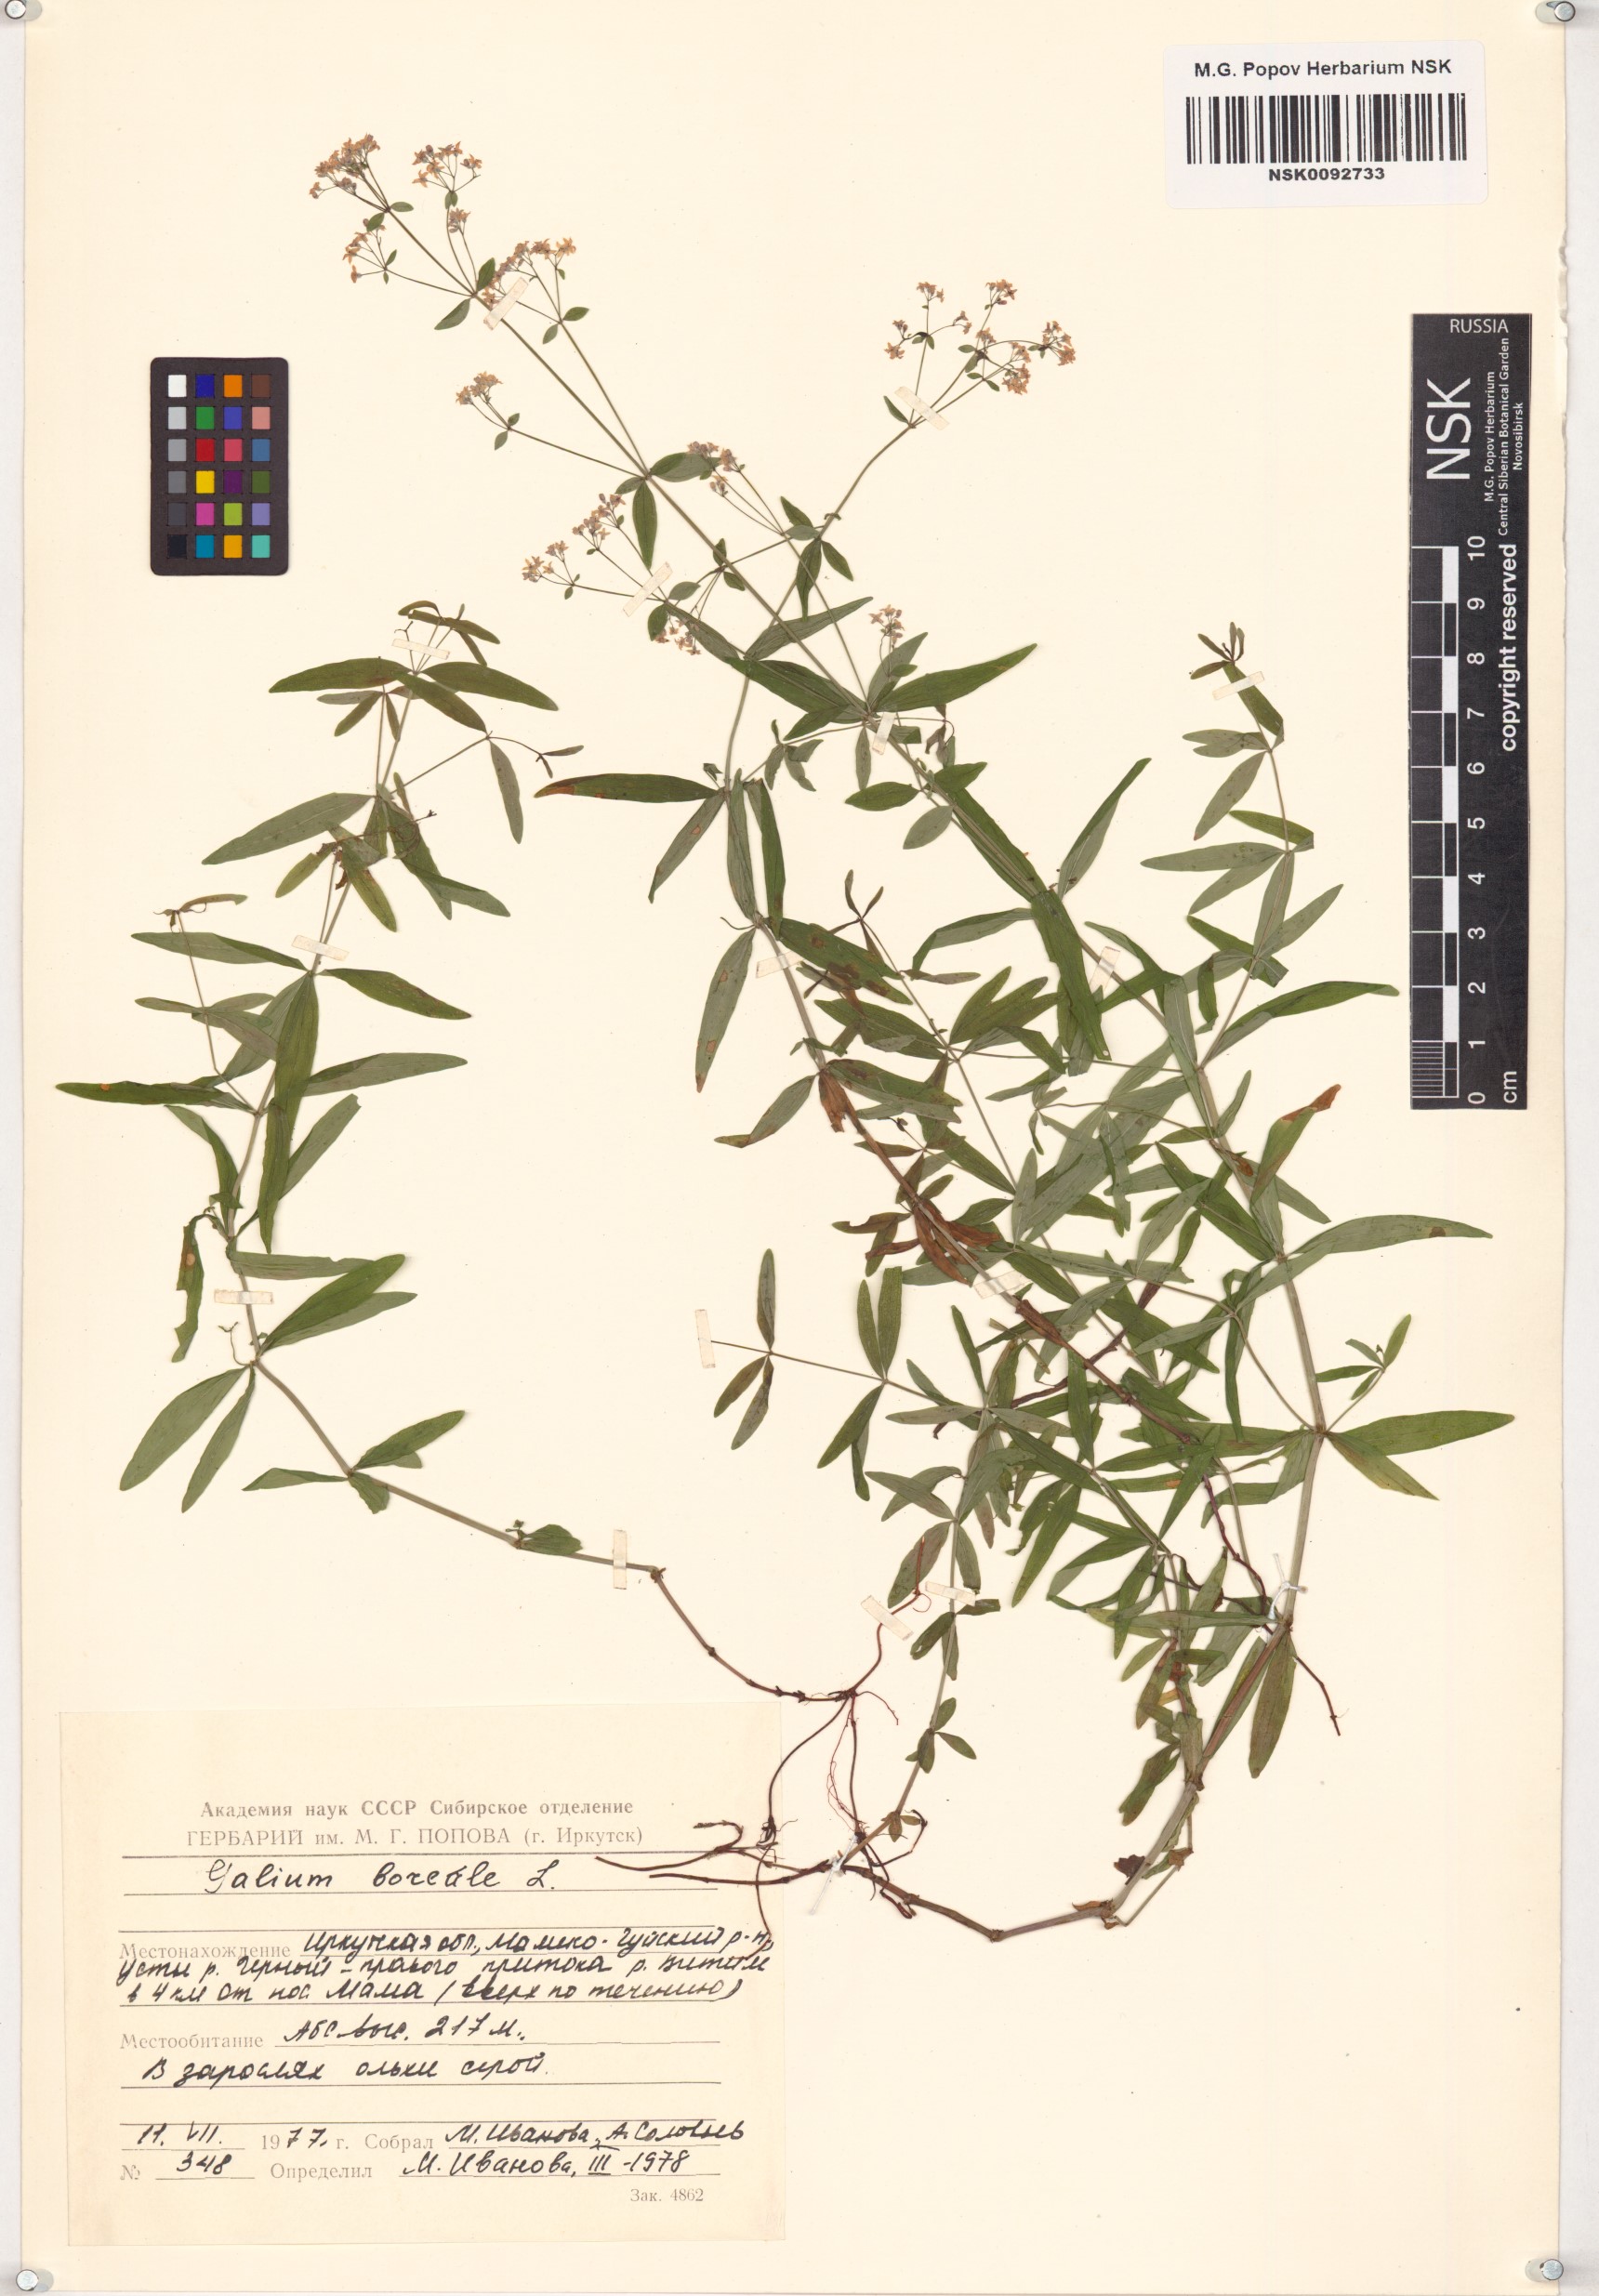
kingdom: Plantae
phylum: Tracheophyta
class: Magnoliopsida
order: Gentianales
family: Rubiaceae
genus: Galium
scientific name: Galium boreale
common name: Northern bedstraw
